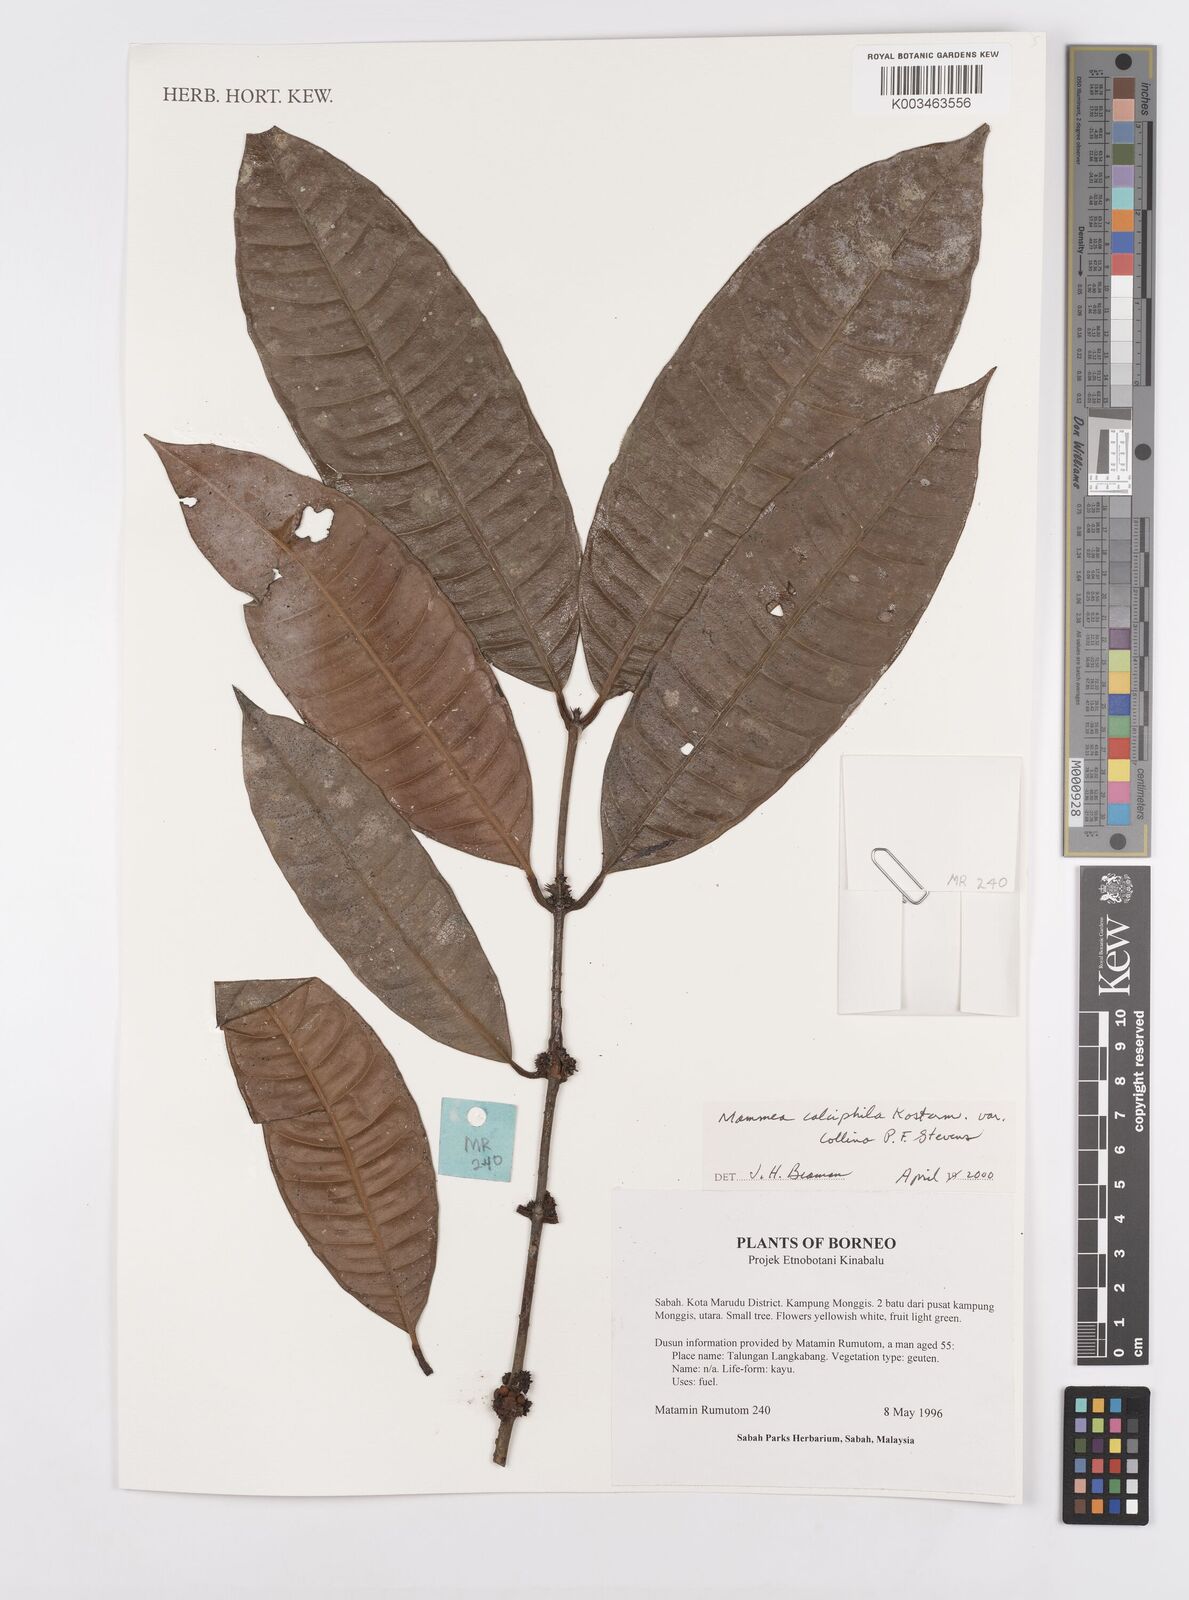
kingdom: Plantae
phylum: Tracheophyta
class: Magnoliopsida
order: Malpighiales
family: Calophyllaceae
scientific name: Calophyllaceae
